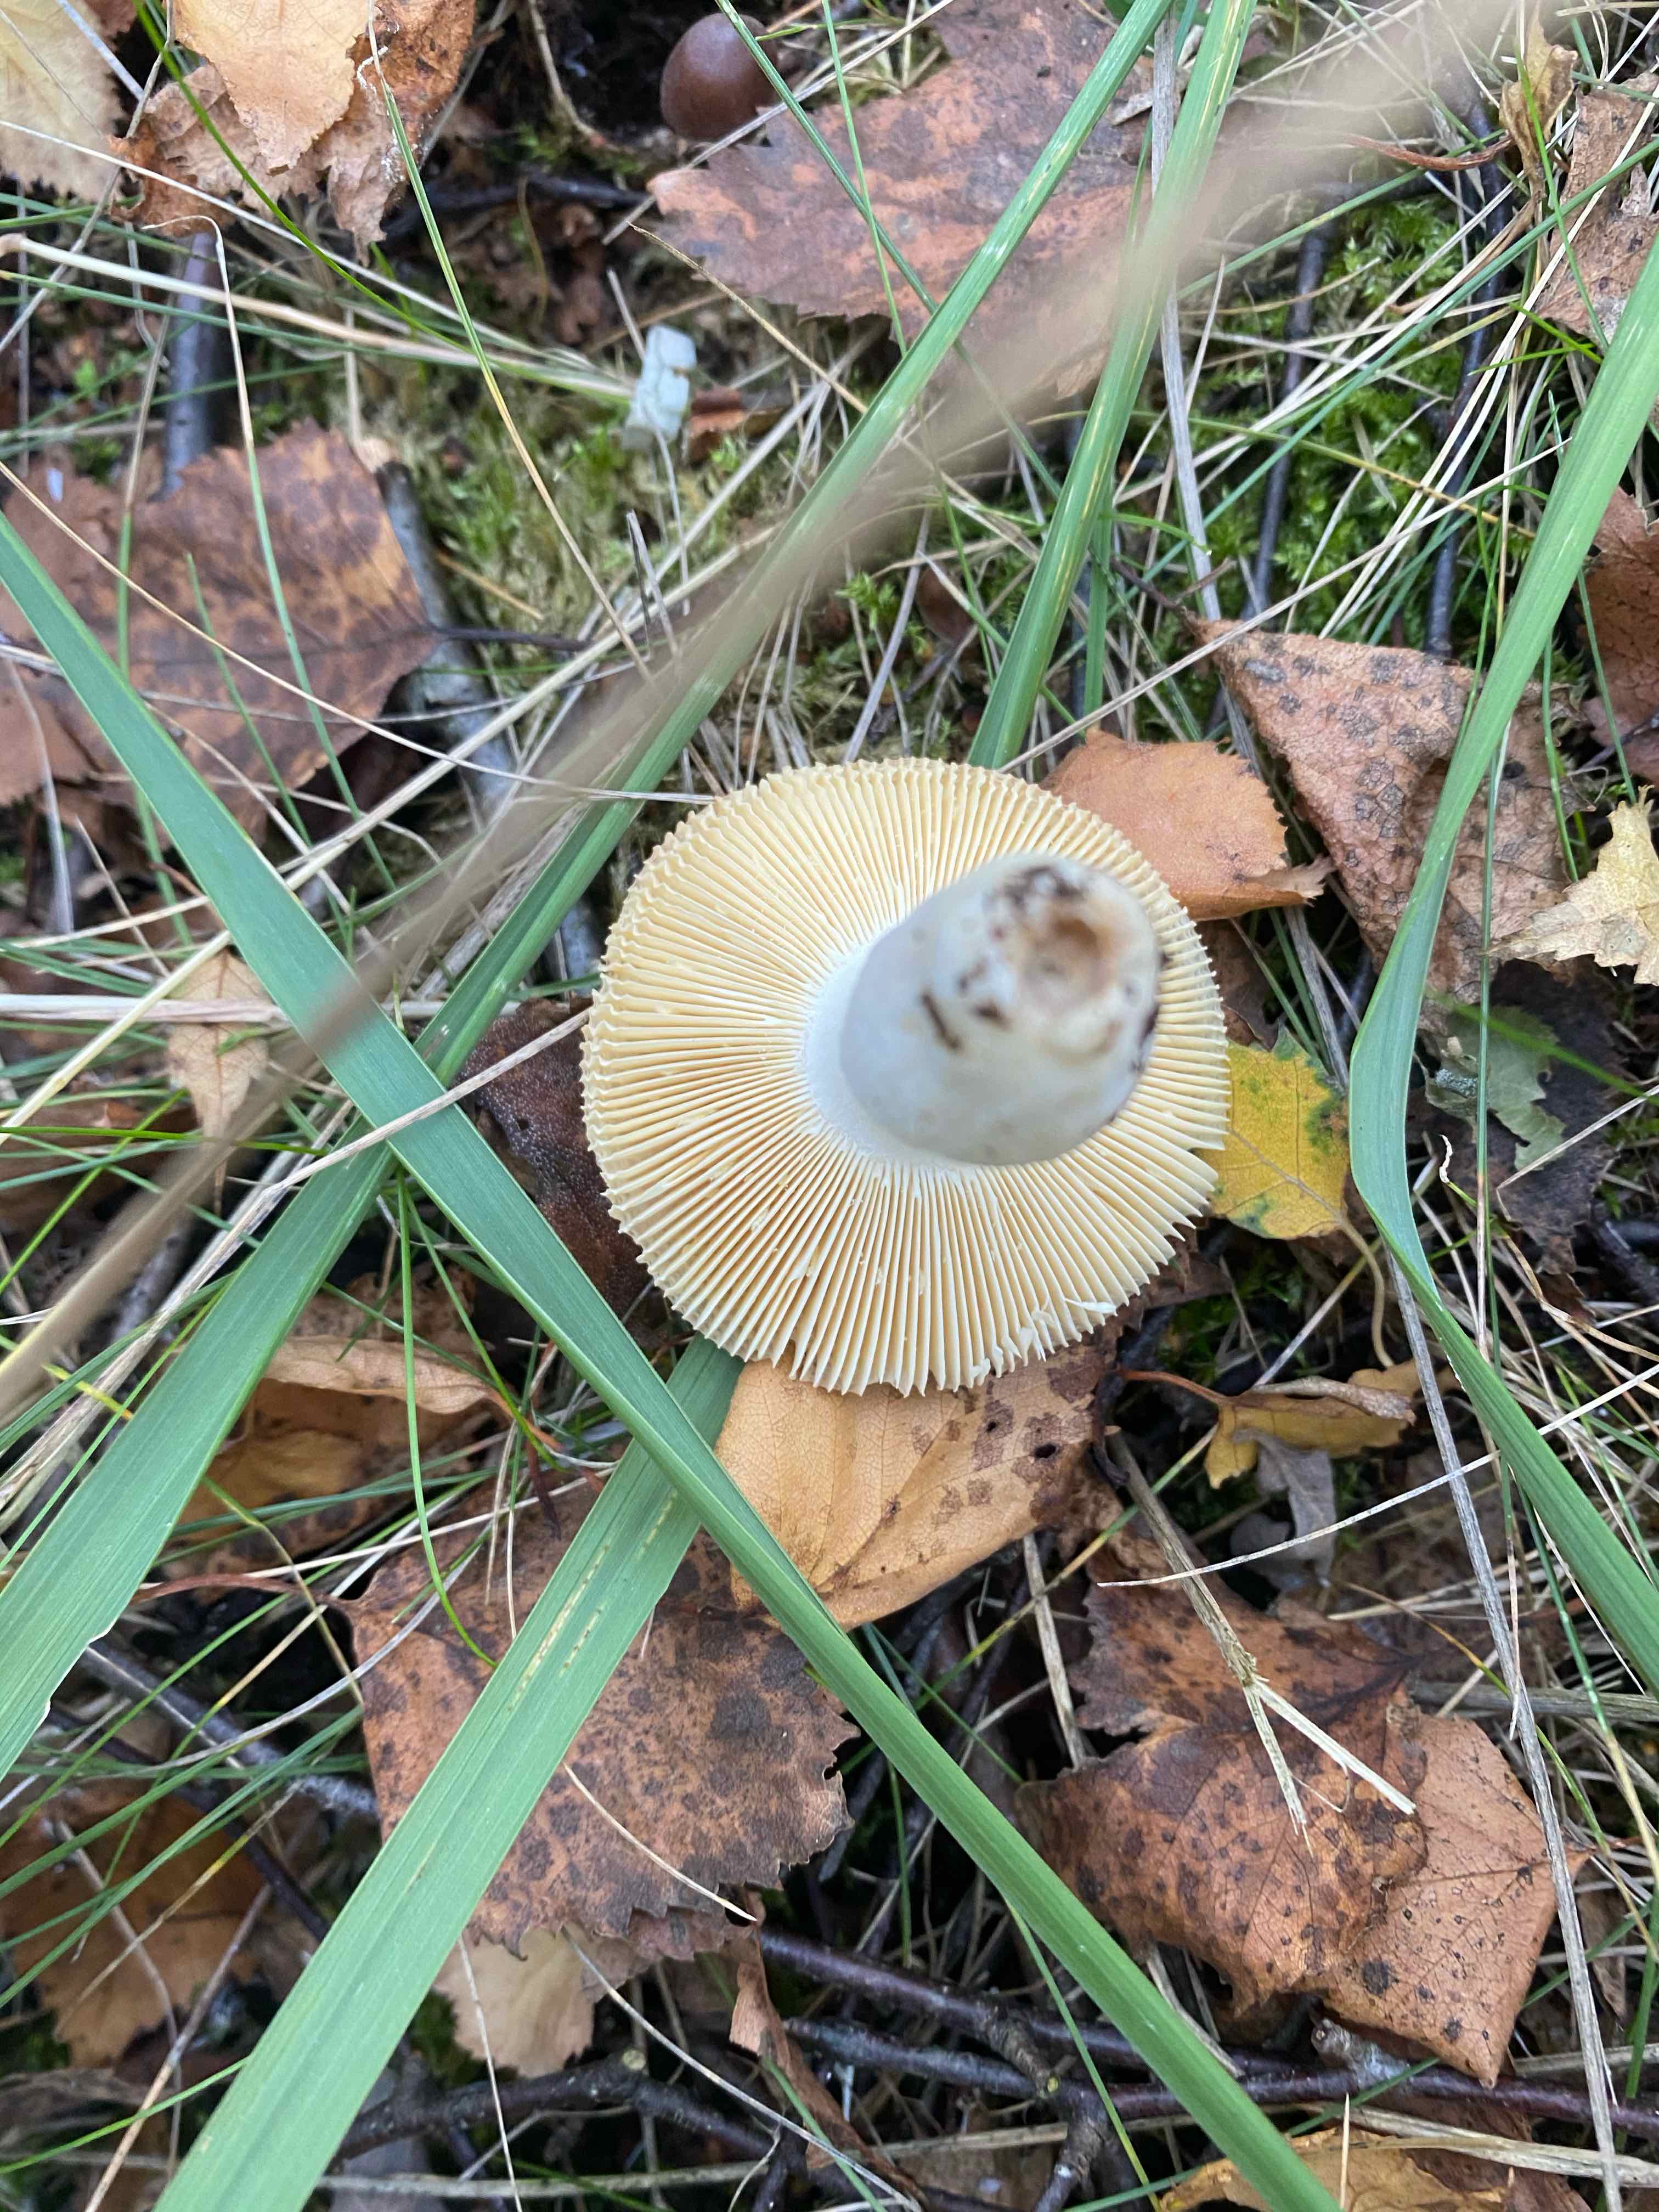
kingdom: Fungi
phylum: Basidiomycota
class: Agaricomycetes
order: Russulales
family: Russulaceae
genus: Russula
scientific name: Russula
